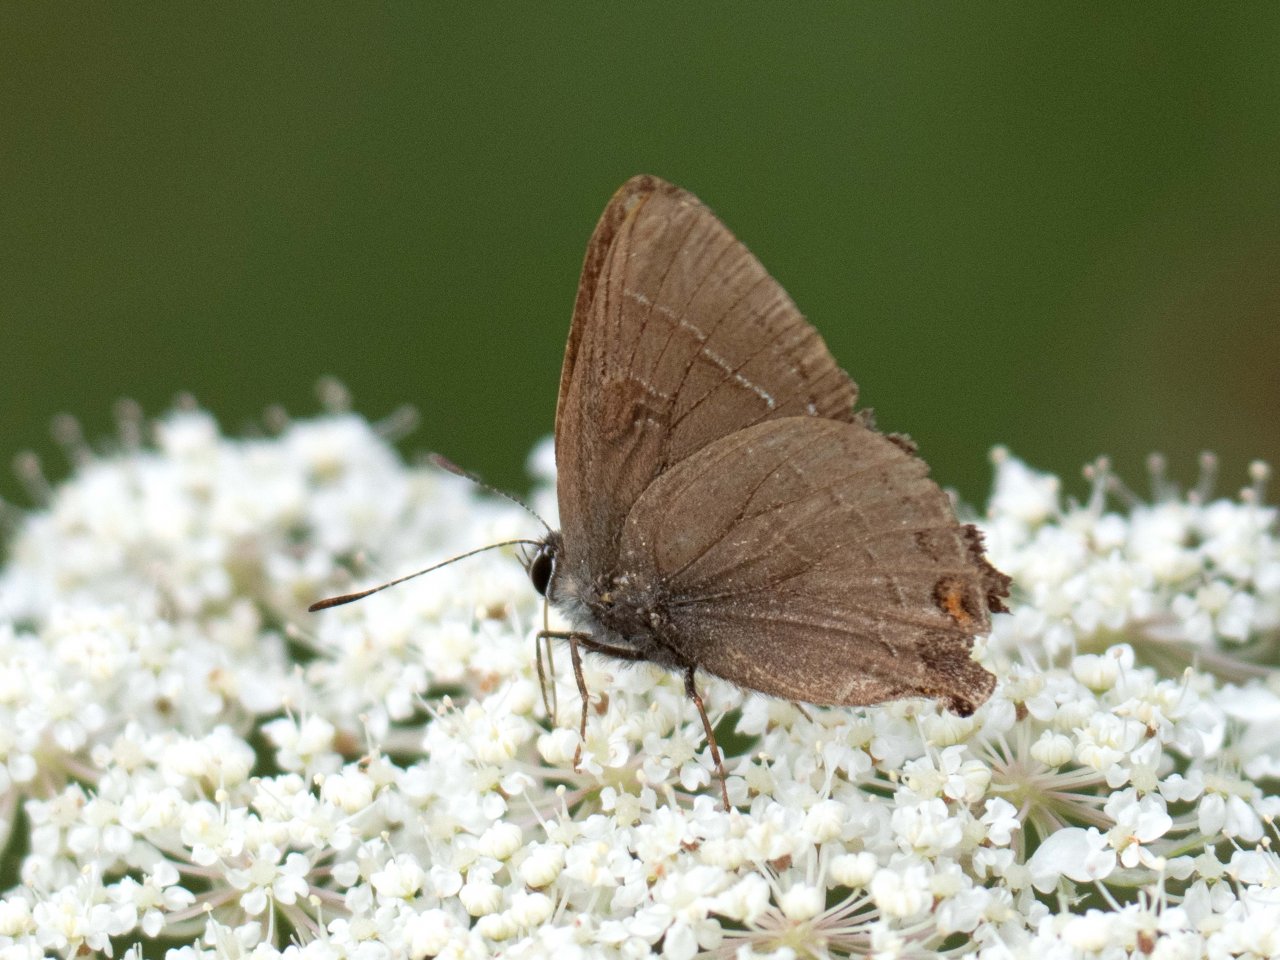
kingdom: Animalia
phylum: Arthropoda
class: Insecta
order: Lepidoptera
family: Lycaenidae
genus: Satyrium
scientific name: Satyrium calanus
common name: Banded Hairstreak
